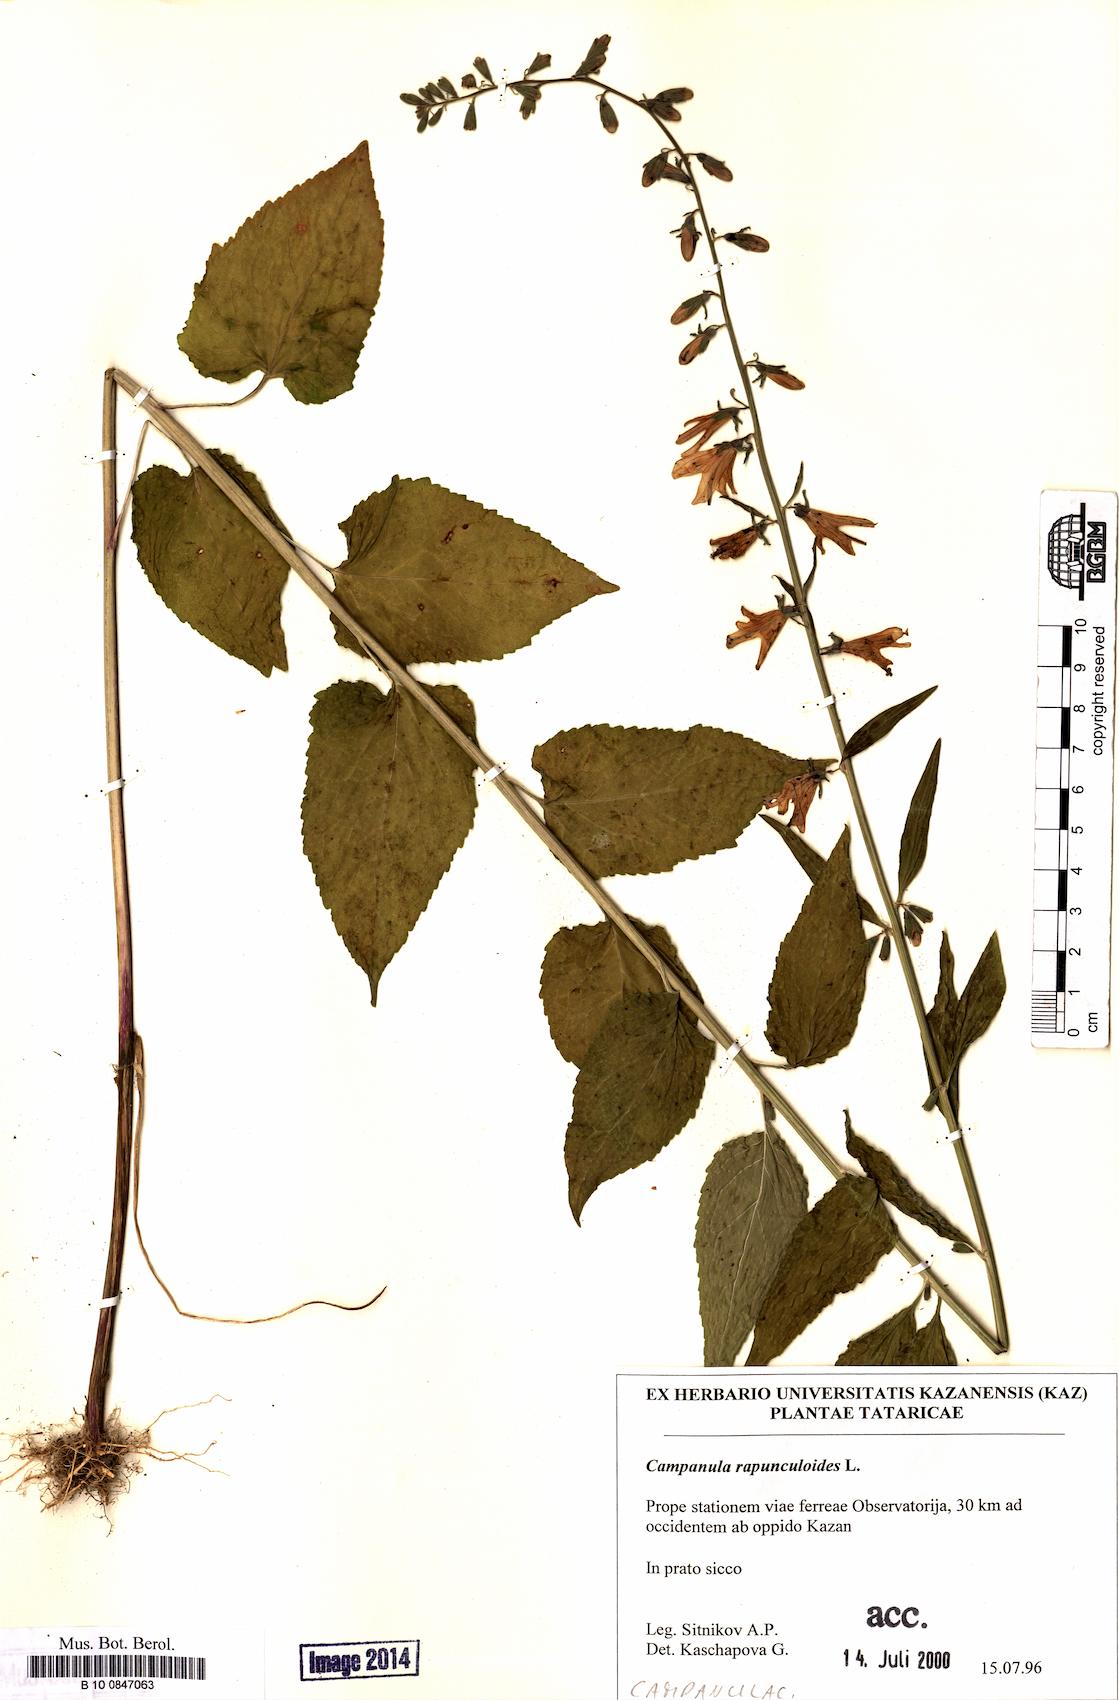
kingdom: Plantae
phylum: Tracheophyta
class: Magnoliopsida
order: Asterales
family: Campanulaceae
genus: Campanula
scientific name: Campanula rapunculoides
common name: Creeping bellflower
